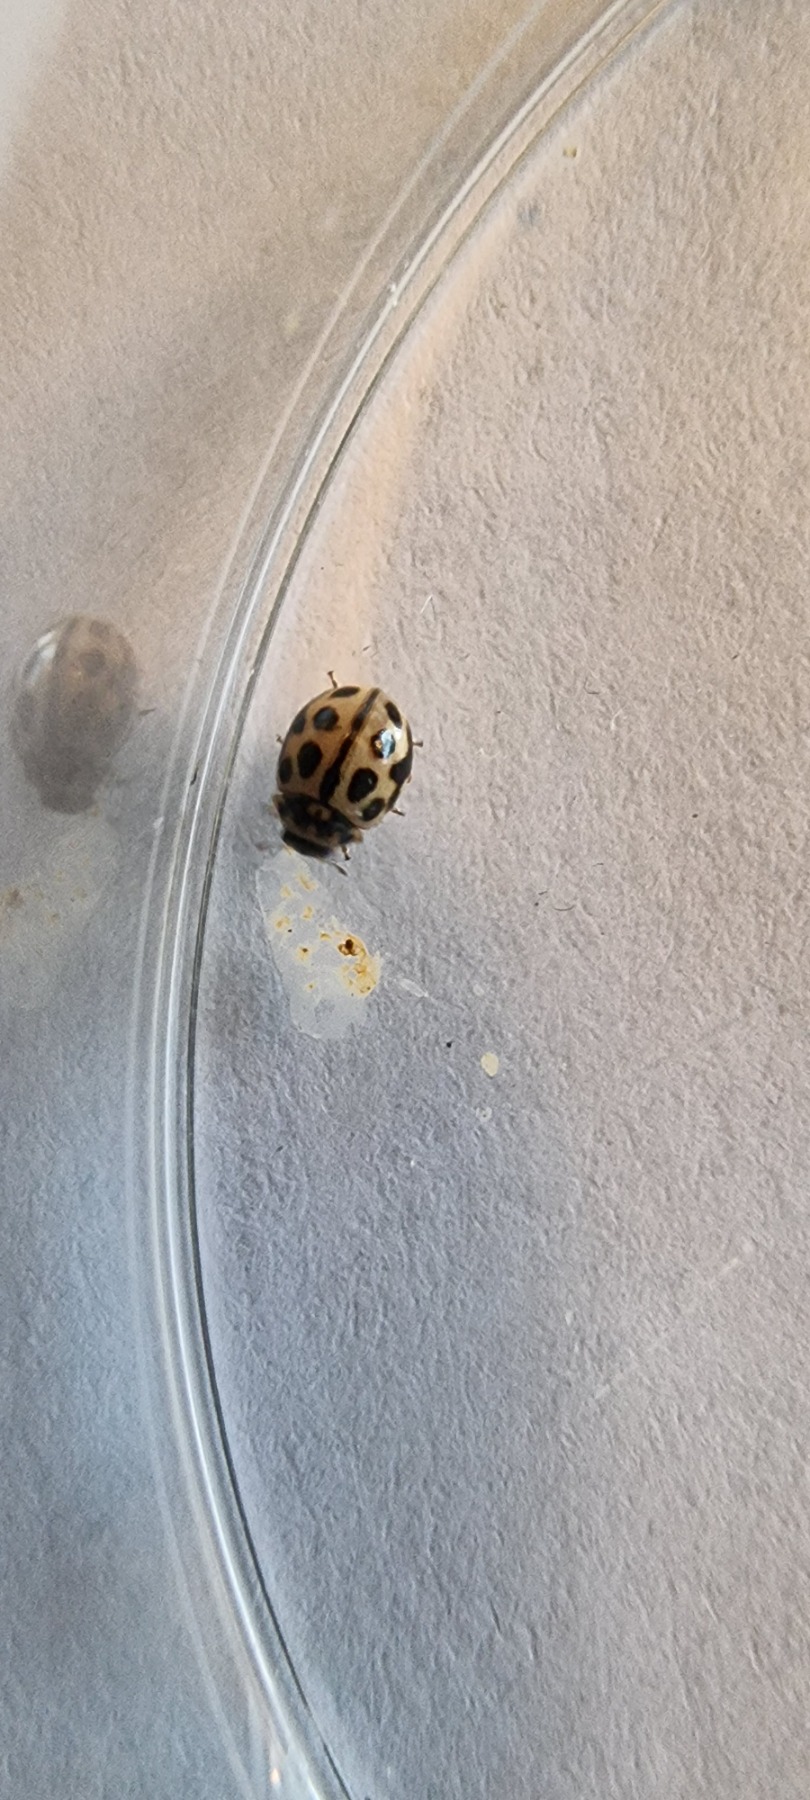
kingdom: Animalia
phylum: Arthropoda
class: Insecta
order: Coleoptera
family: Coccinellidae
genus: Tytthaspis
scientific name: Tytthaspis sedecimpunctata
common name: Sekstenprikket mariehøne
